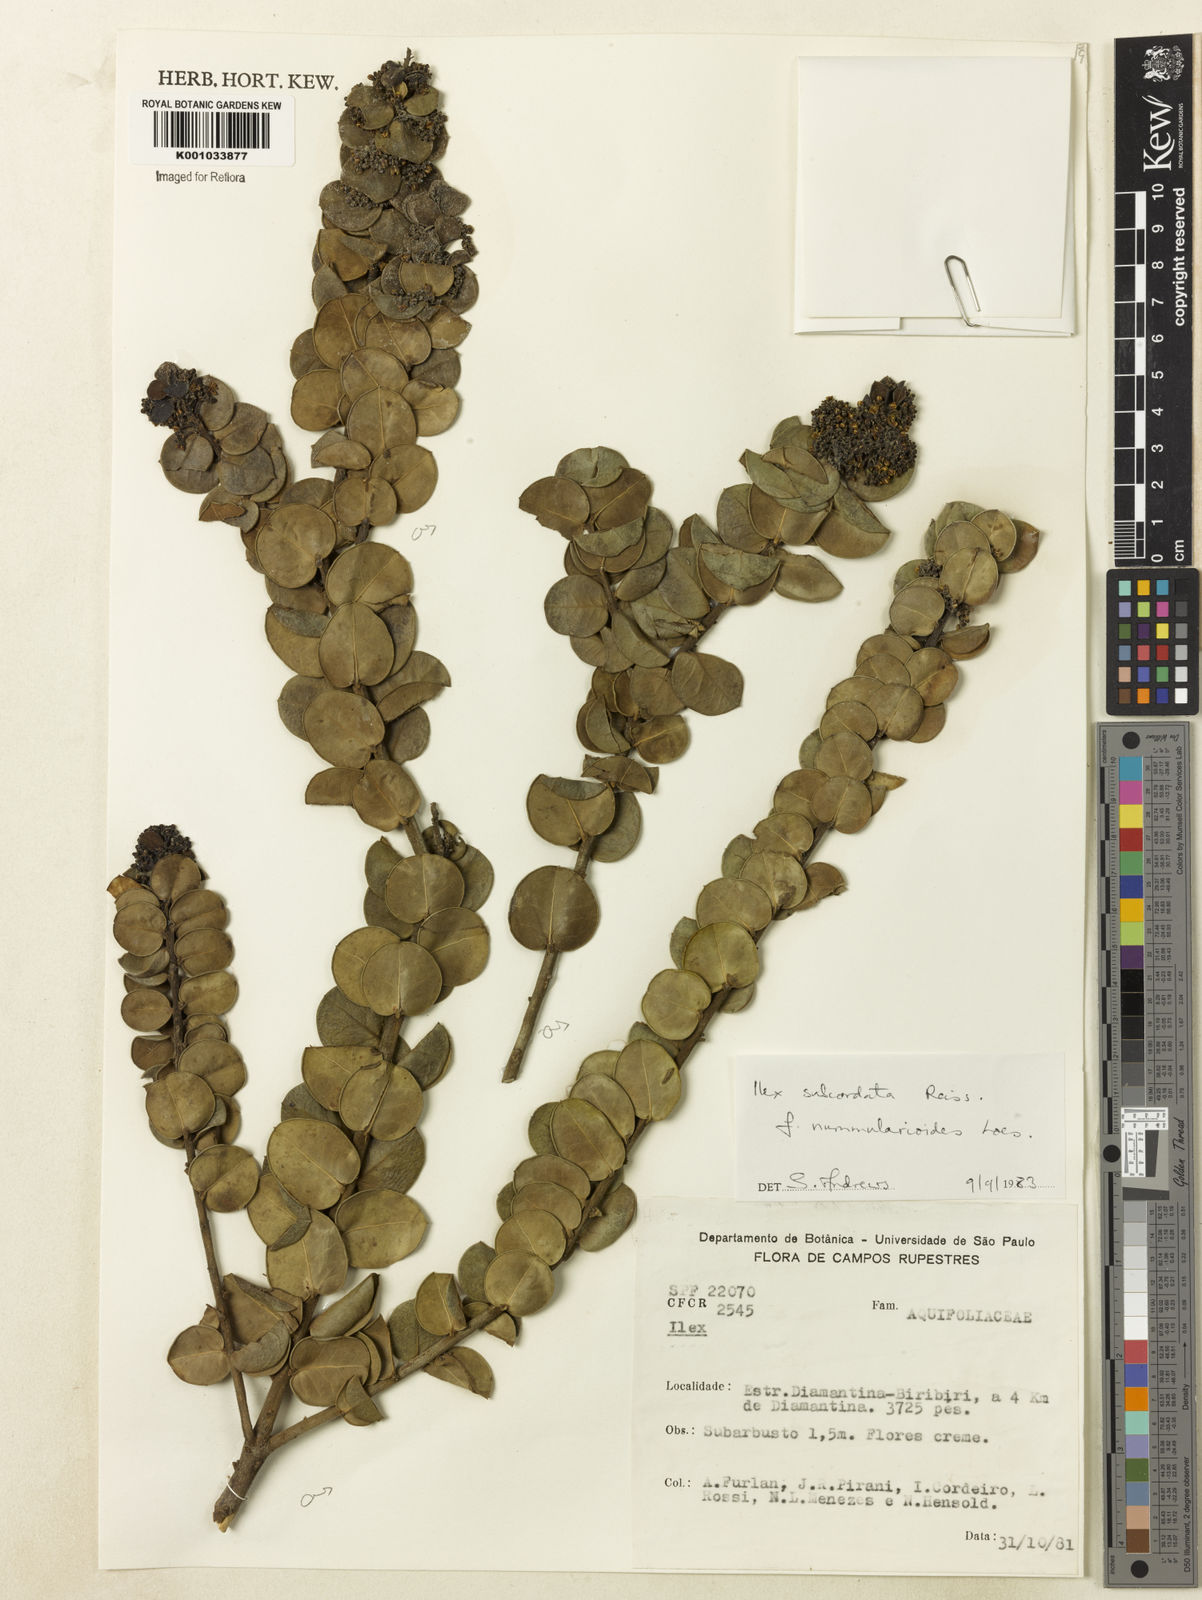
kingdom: Plantae
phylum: Tracheophyta
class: Magnoliopsida
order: Aquifoliales
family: Aquifoliaceae
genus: Ilex
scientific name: Ilex subcordata
